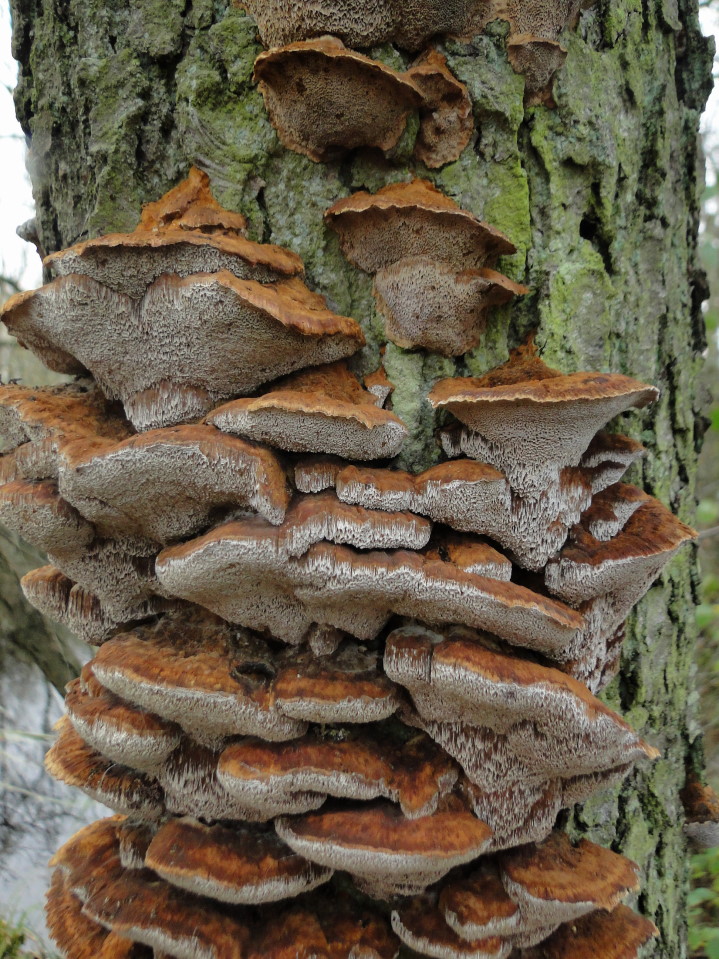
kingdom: Fungi
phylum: Basidiomycota
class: Agaricomycetes
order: Hymenochaetales
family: Hymenochaetaceae
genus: Xanthoporia
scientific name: Xanthoporia radiata
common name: elle-spejlporesvamp
